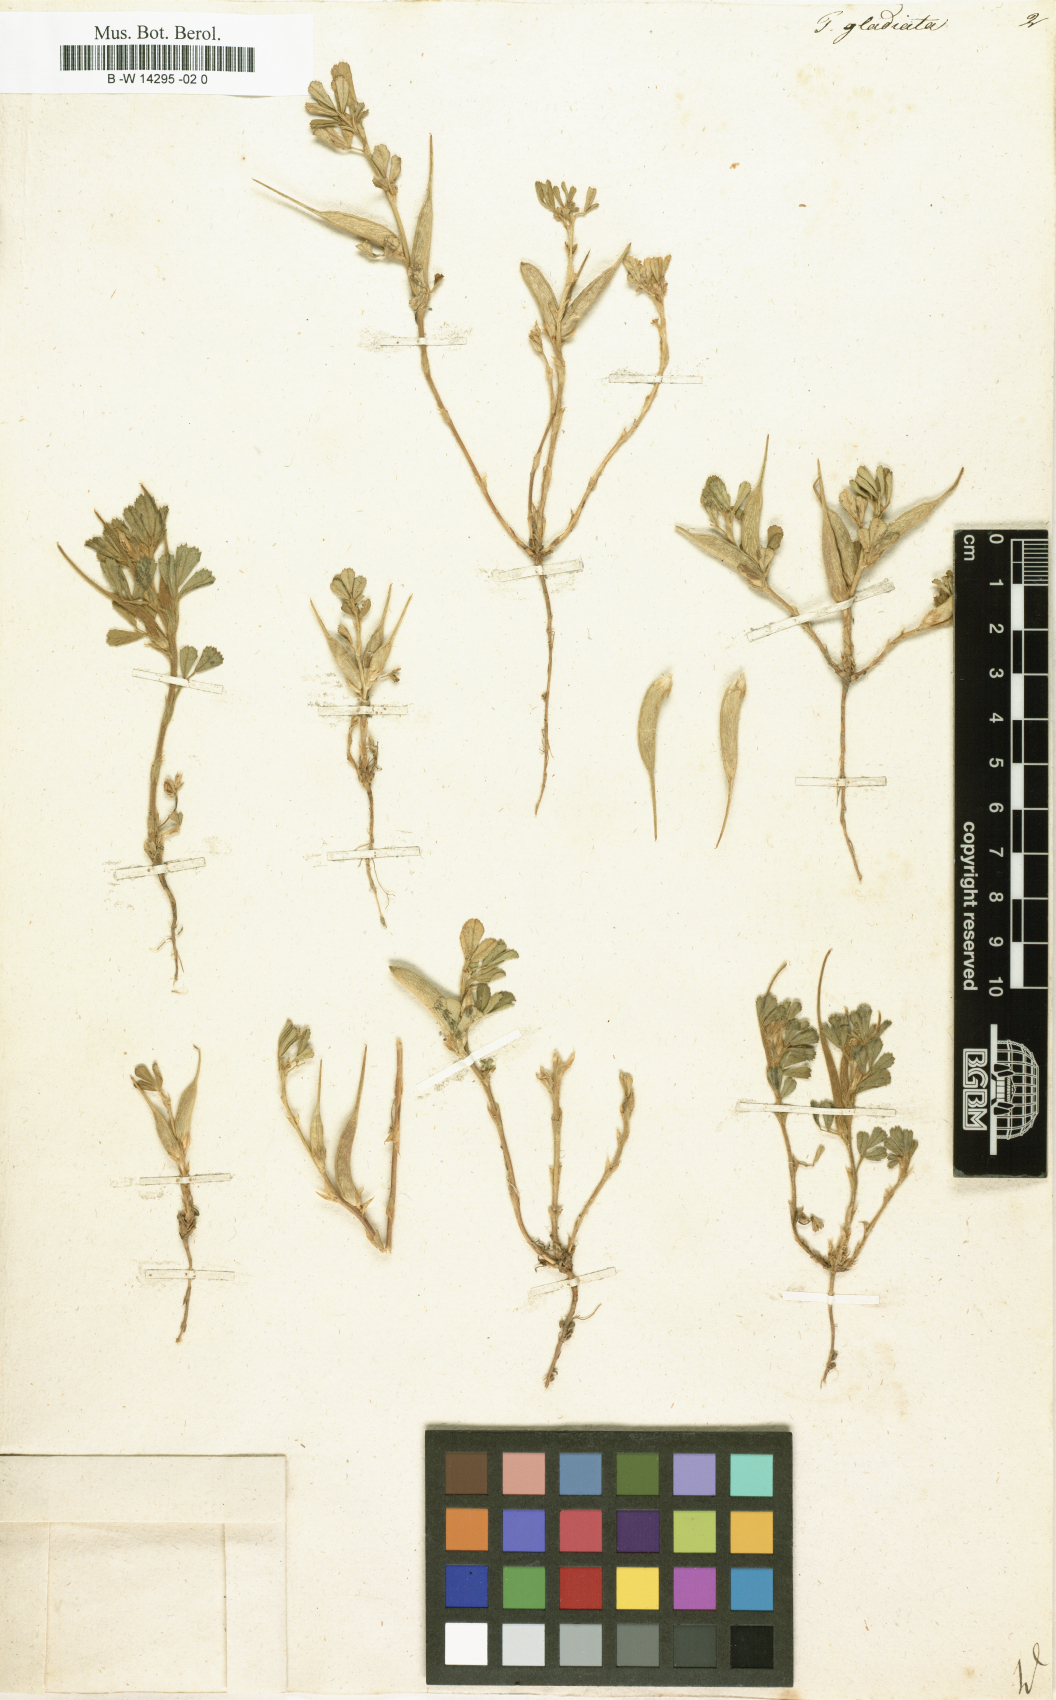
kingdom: Plantae
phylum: Tracheophyta
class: Magnoliopsida
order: Fabales
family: Fabaceae
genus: Trigonella
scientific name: Trigonella gladiata
